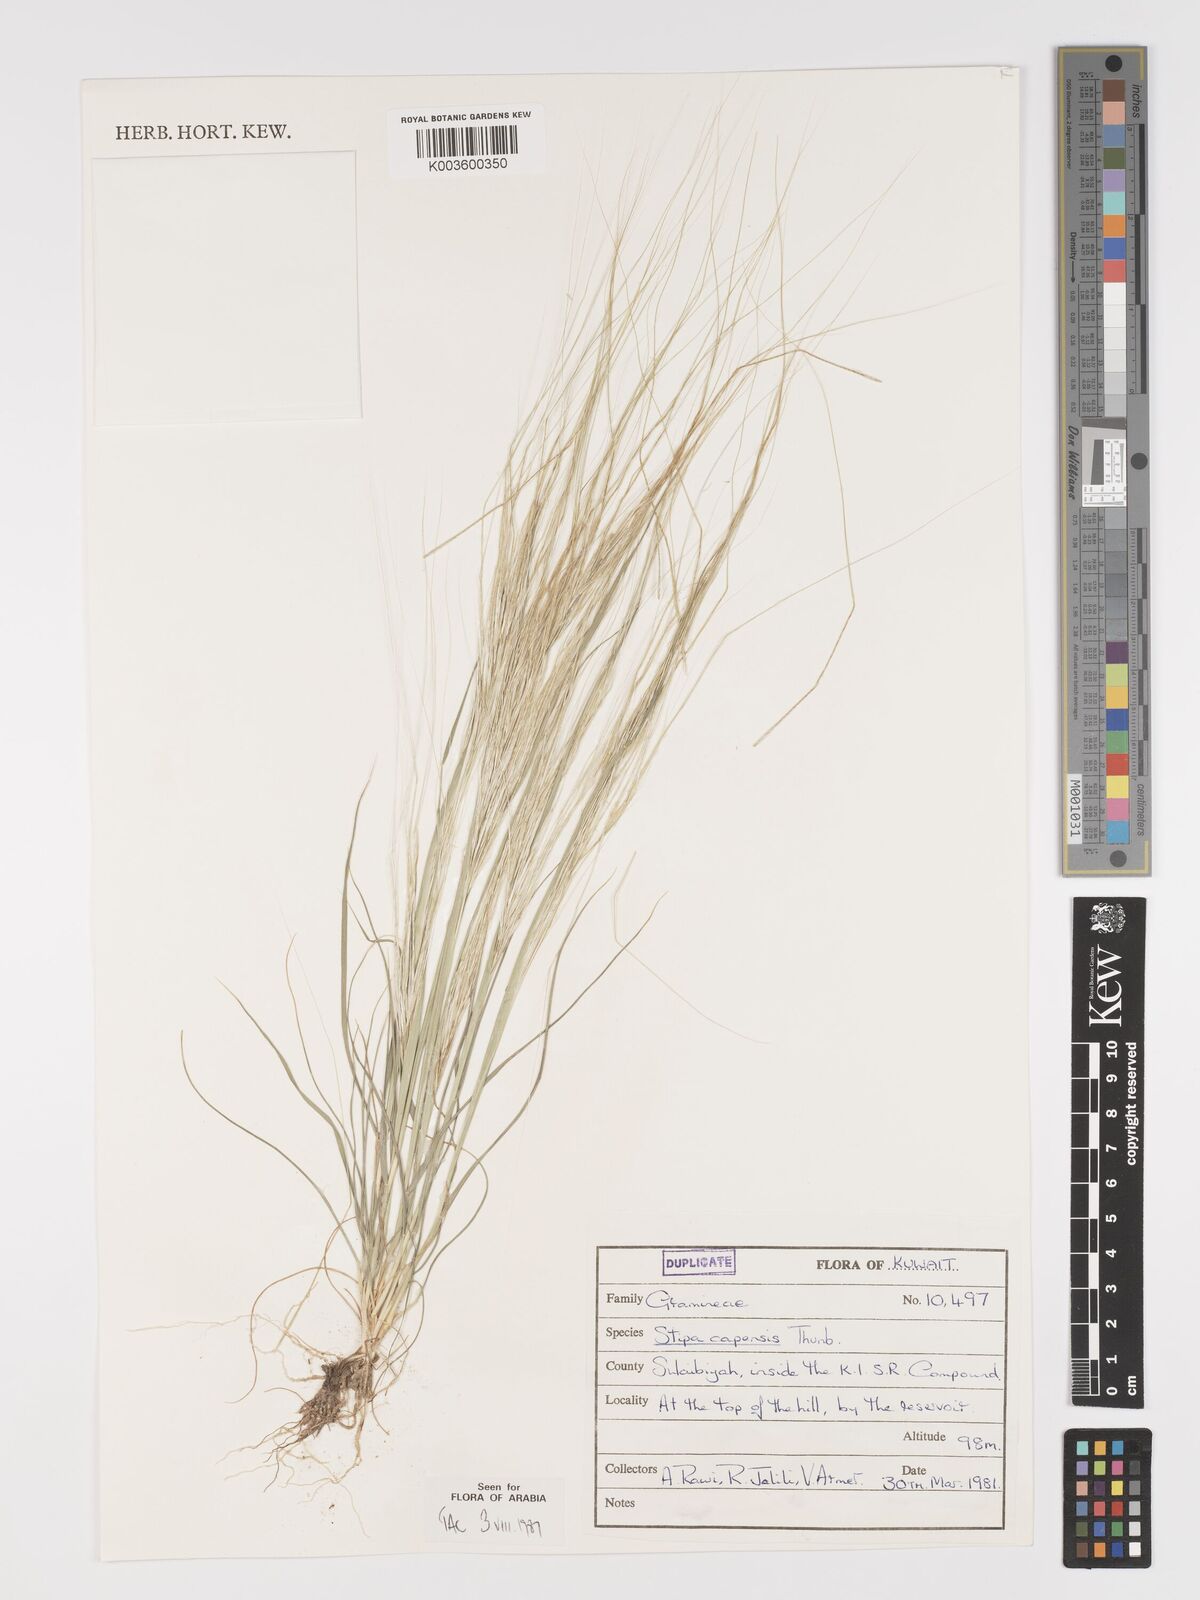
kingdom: Plantae
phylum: Tracheophyta
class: Liliopsida
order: Poales
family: Poaceae
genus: Stipellula
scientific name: Stipellula capensis
